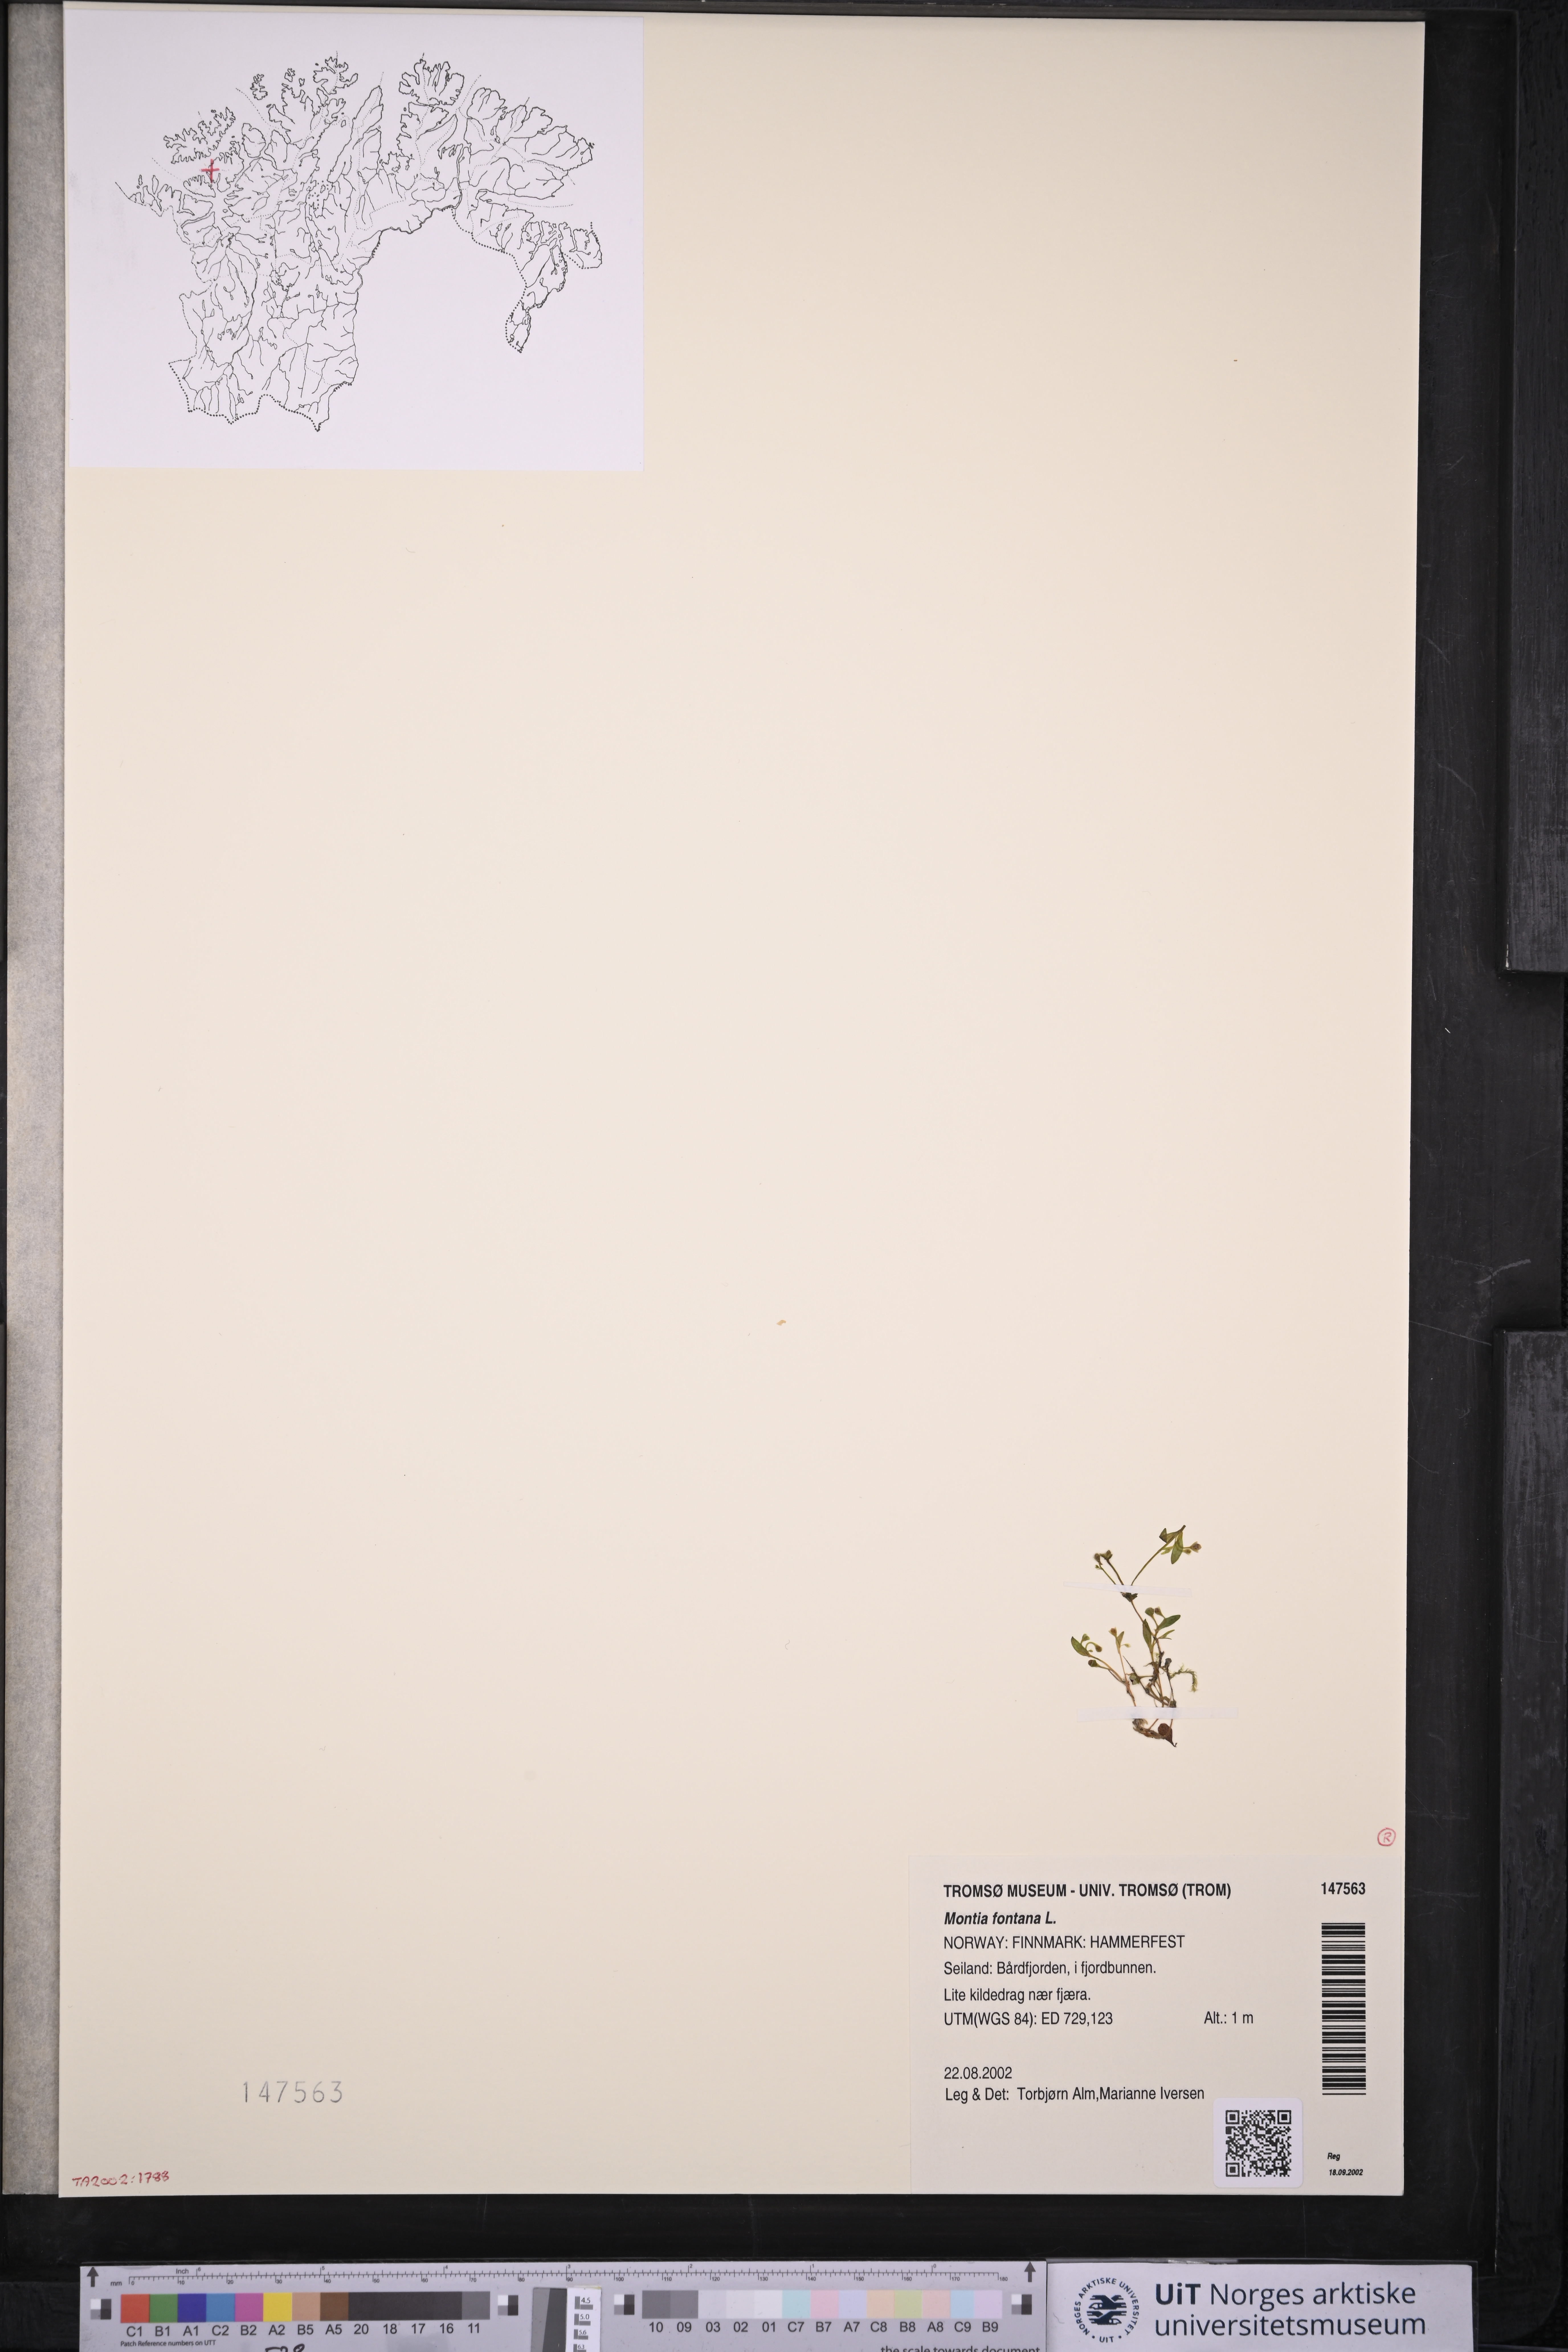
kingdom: Plantae
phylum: Tracheophyta
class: Magnoliopsida
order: Caryophyllales
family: Montiaceae
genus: Montia
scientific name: Montia fontana
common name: Blinks
